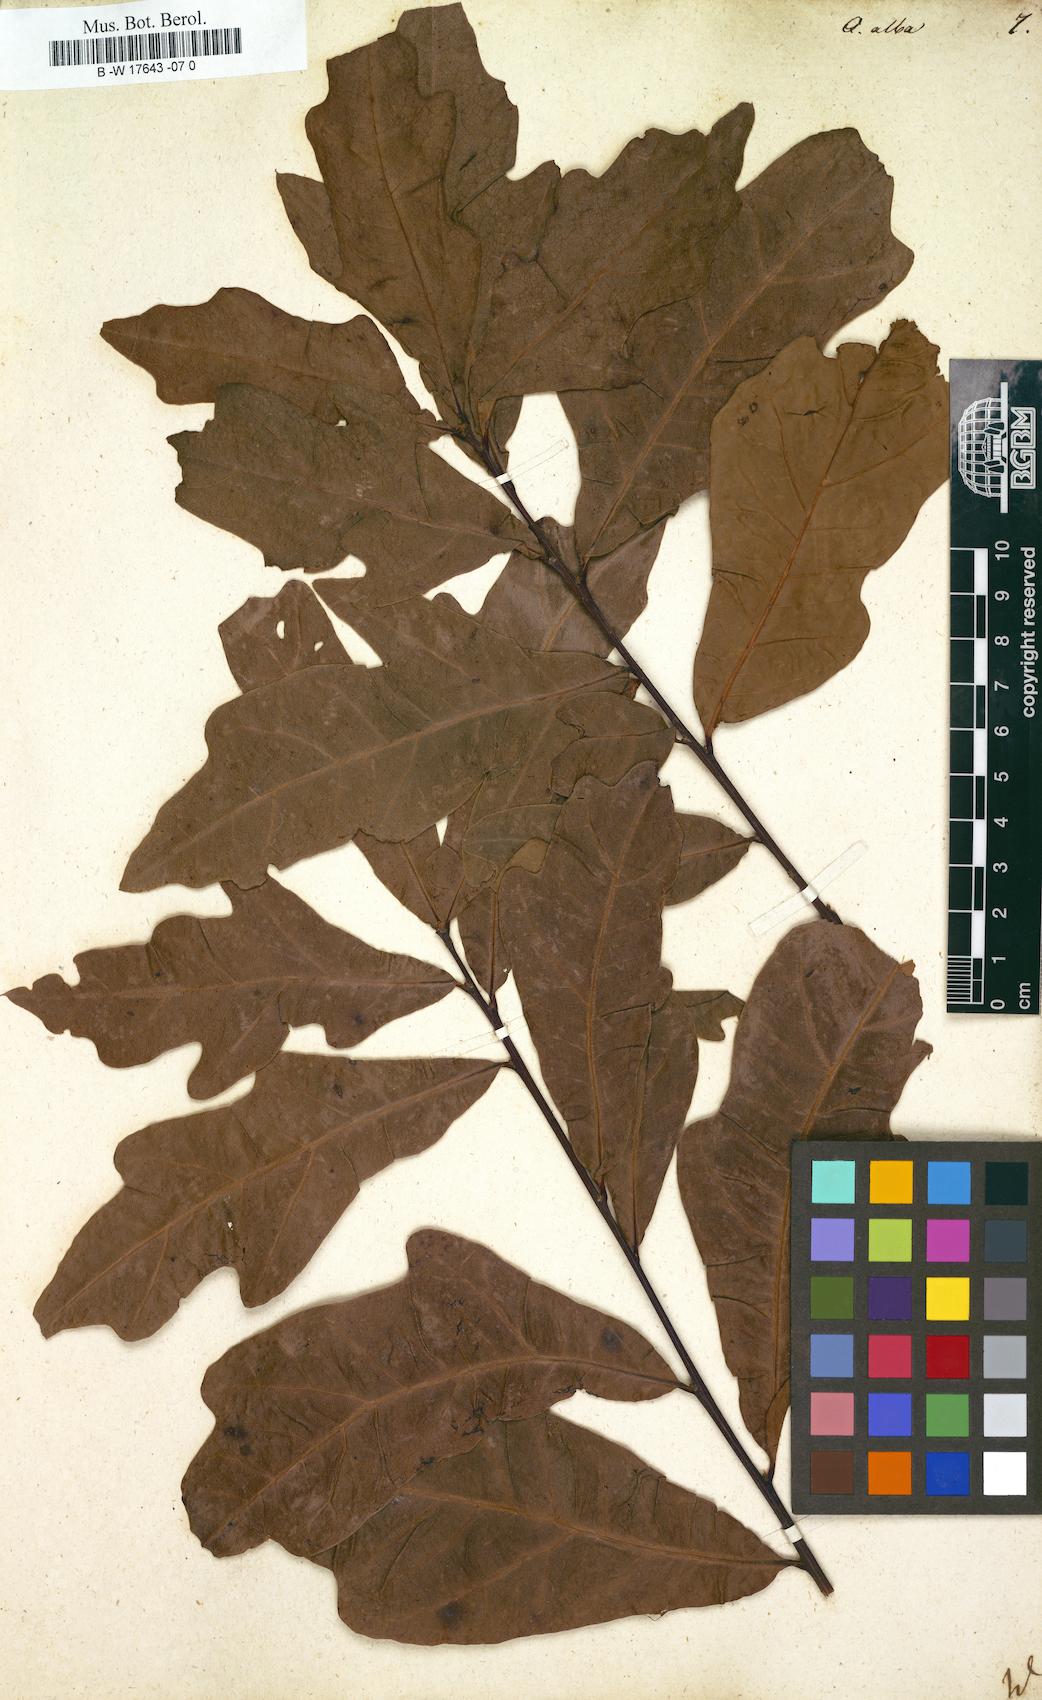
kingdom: Plantae
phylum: Tracheophyta
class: Magnoliopsida
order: Fagales
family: Fagaceae
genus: Quercus
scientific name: Quercus alba
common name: White oak
